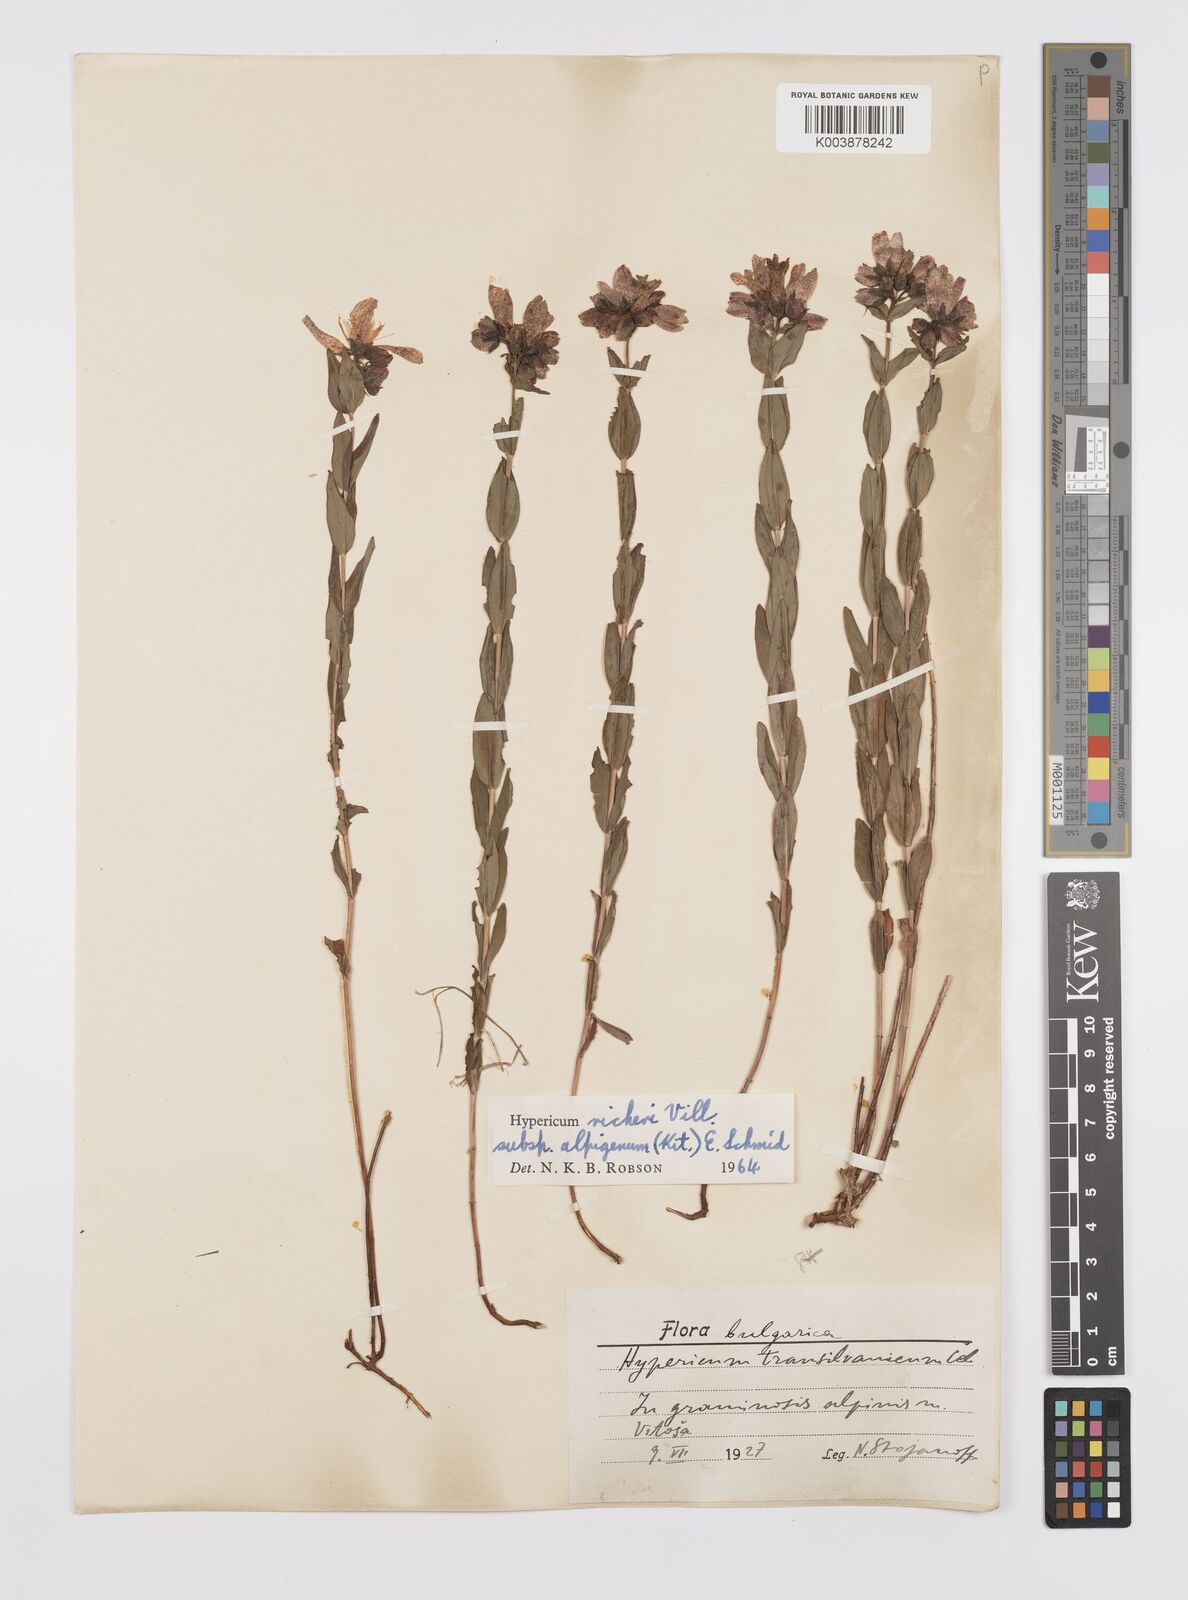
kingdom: Plantae
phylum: Tracheophyta
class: Magnoliopsida
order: Malpighiales
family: Hypericaceae
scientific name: Hypericaceae
